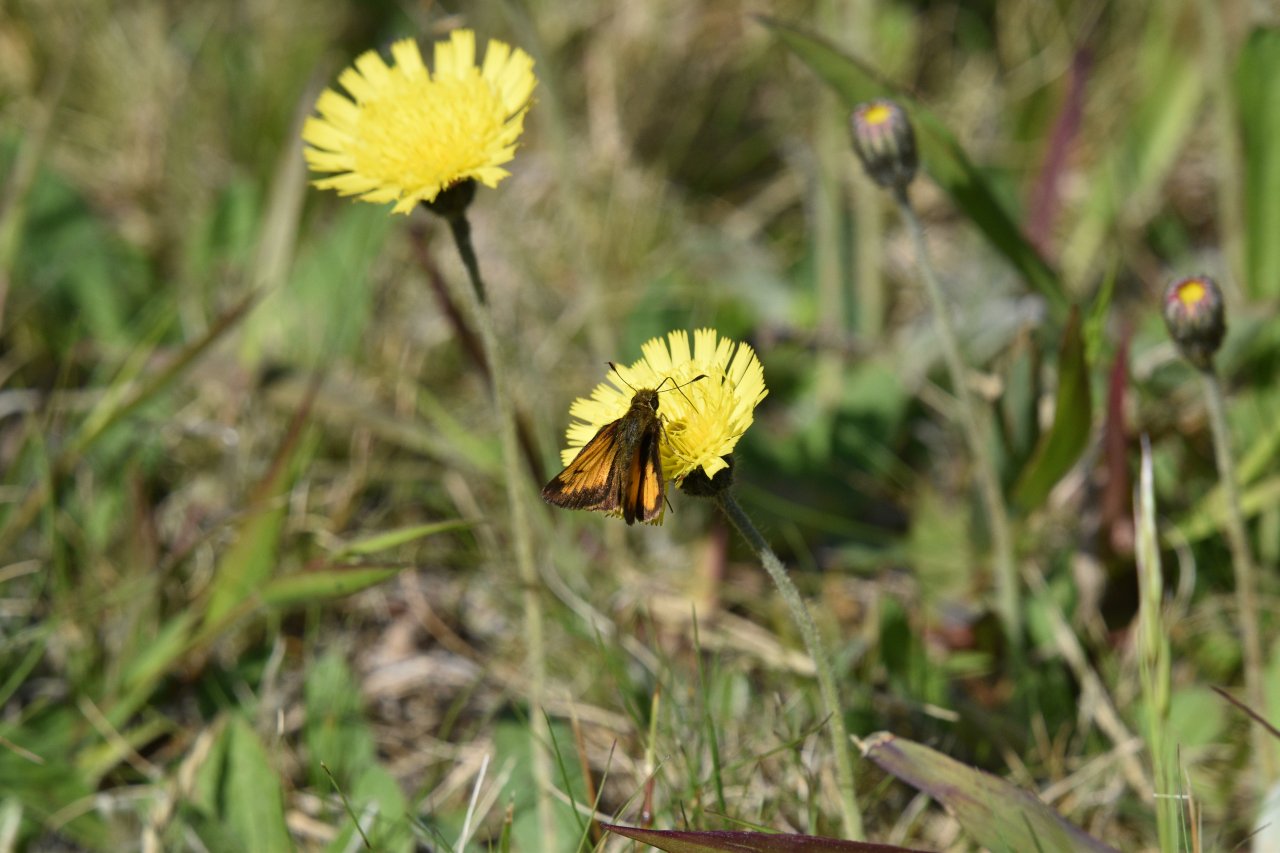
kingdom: Animalia
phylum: Arthropoda
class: Insecta
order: Lepidoptera
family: Hesperiidae
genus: Lon
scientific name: Lon hobomok
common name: Hobomok Skipper
